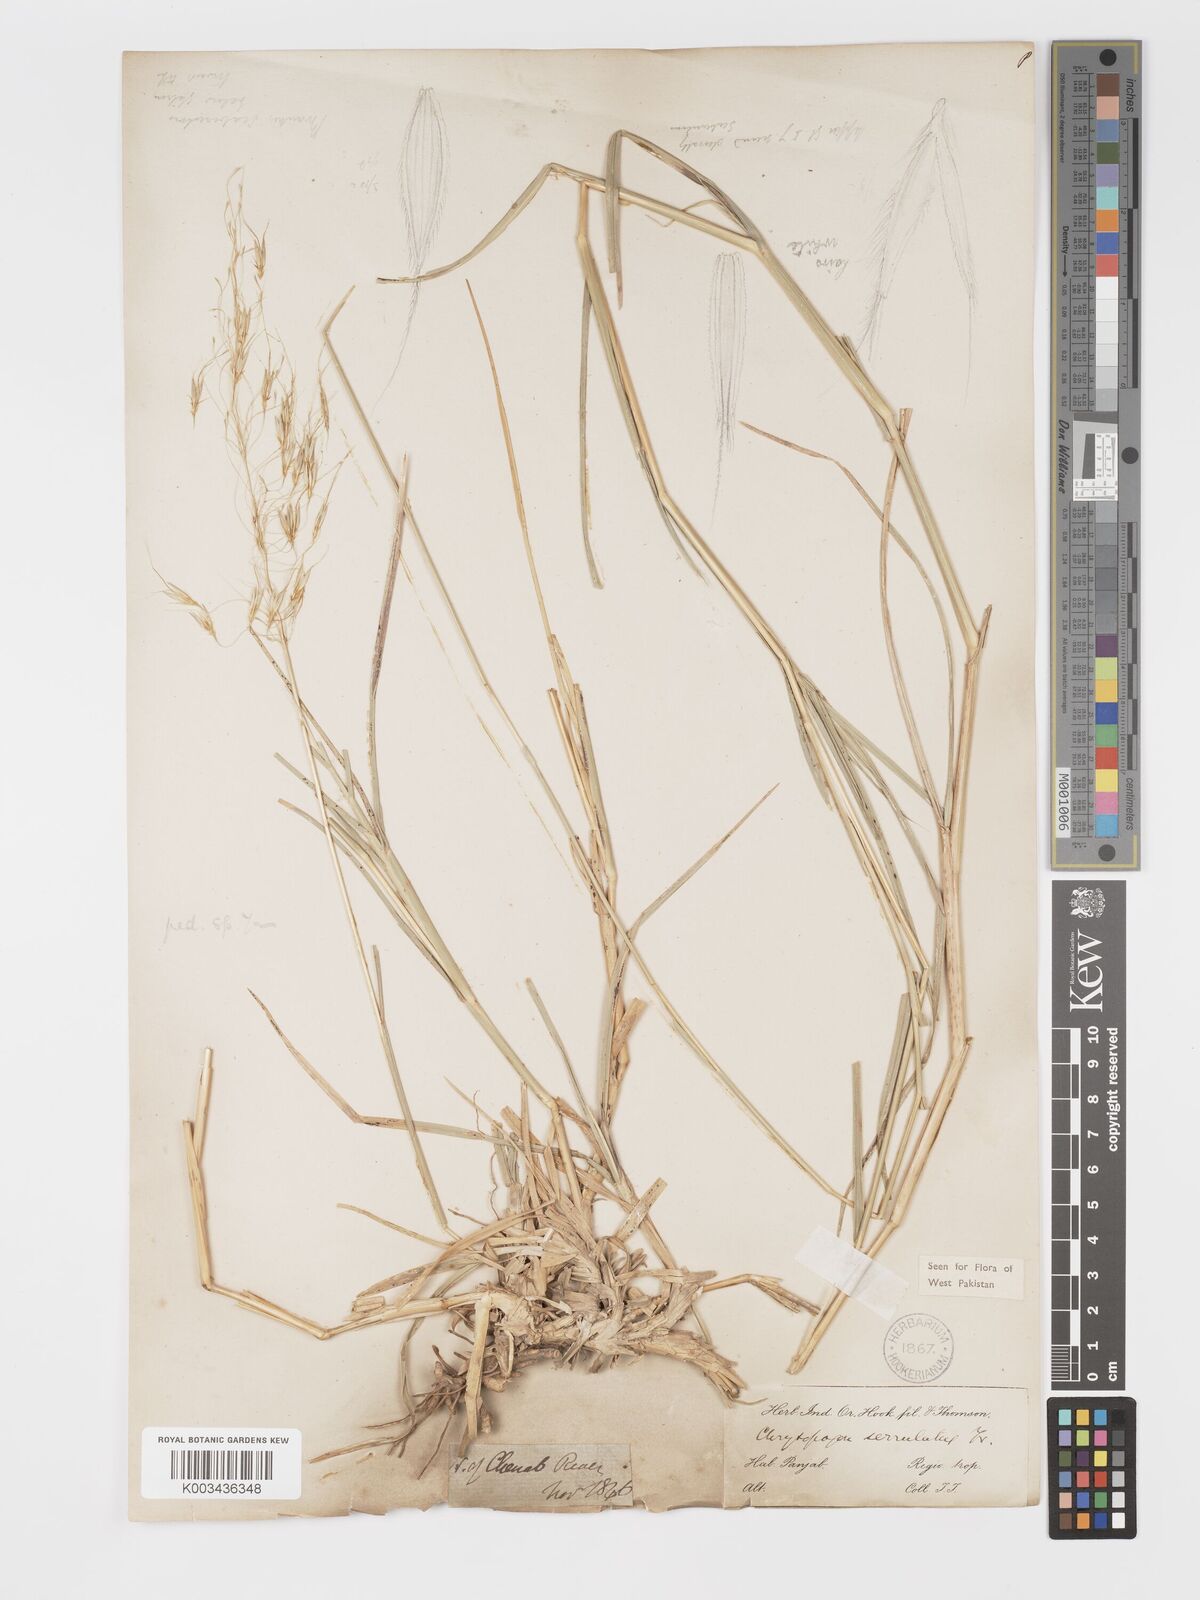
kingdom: Plantae
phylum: Tracheophyta
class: Liliopsida
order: Poales
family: Poaceae
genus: Chrysopogon
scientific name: Chrysopogon serrulatus
